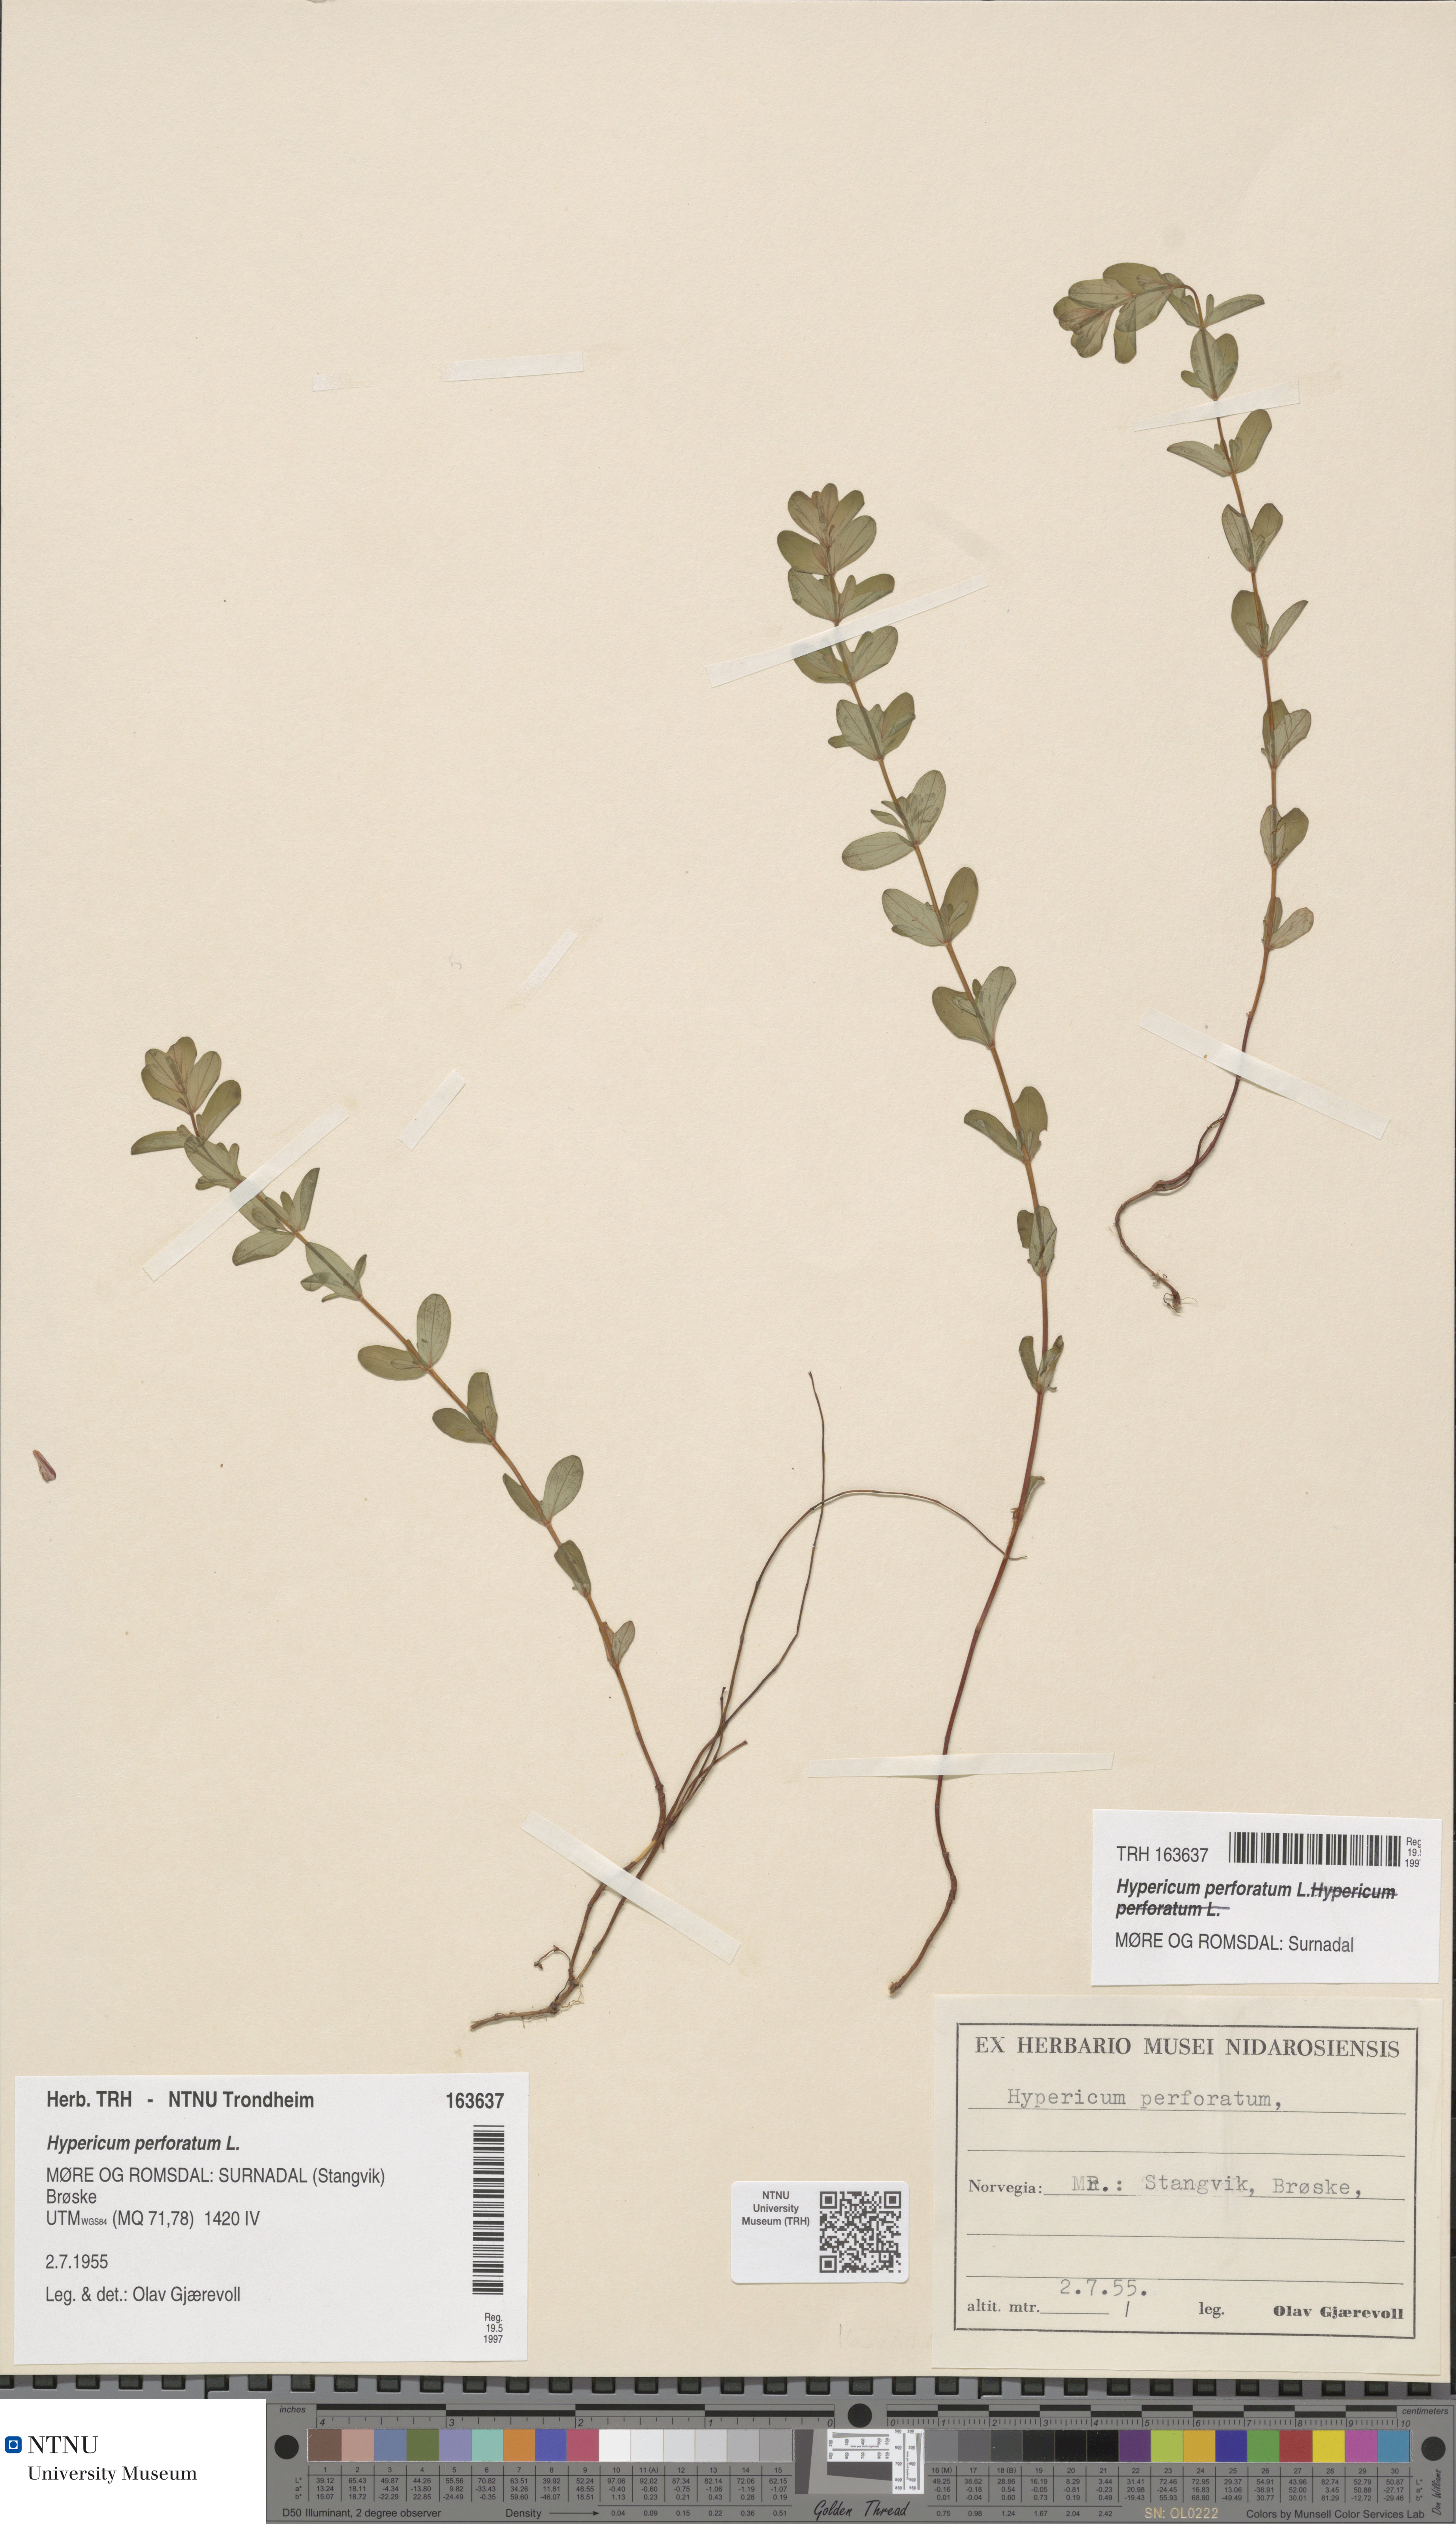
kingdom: Plantae
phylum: Tracheophyta
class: Magnoliopsida
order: Malpighiales
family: Hypericaceae
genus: Hypericum
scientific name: Hypericum perforatum
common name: Common st. johnswort
